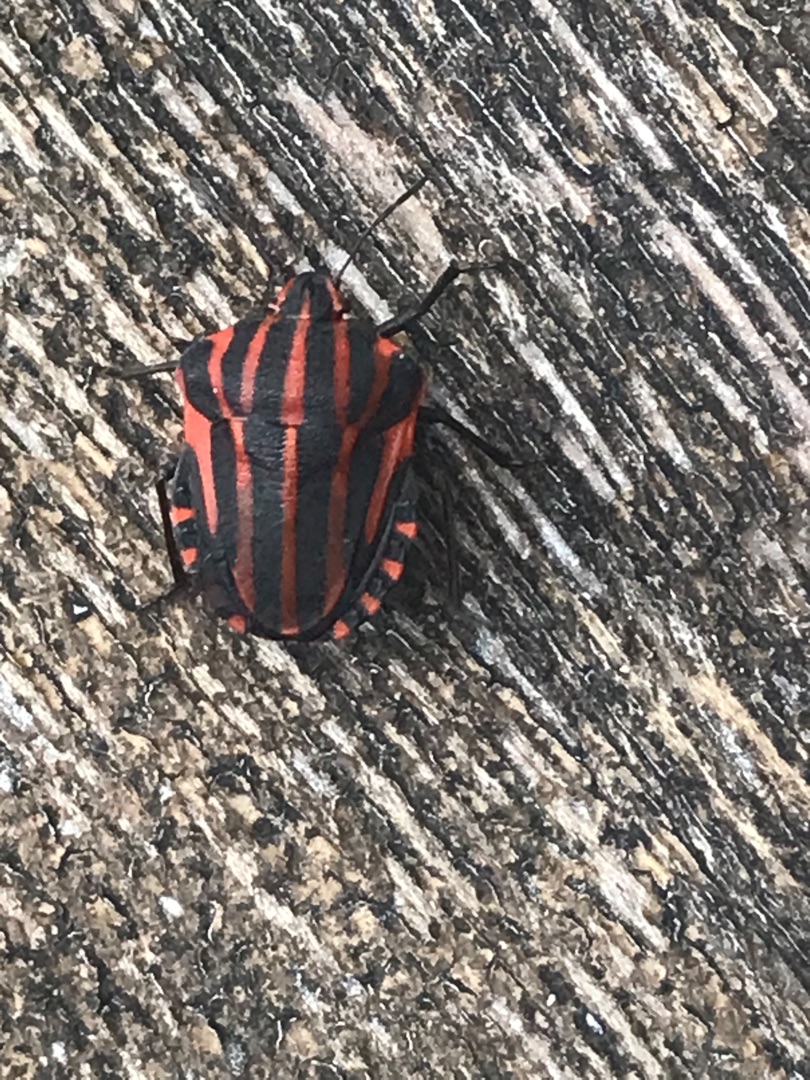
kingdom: Animalia
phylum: Arthropoda
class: Insecta
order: Hemiptera
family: Pentatomidae
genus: Graphosoma
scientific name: Graphosoma italicum
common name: Stribetæge
